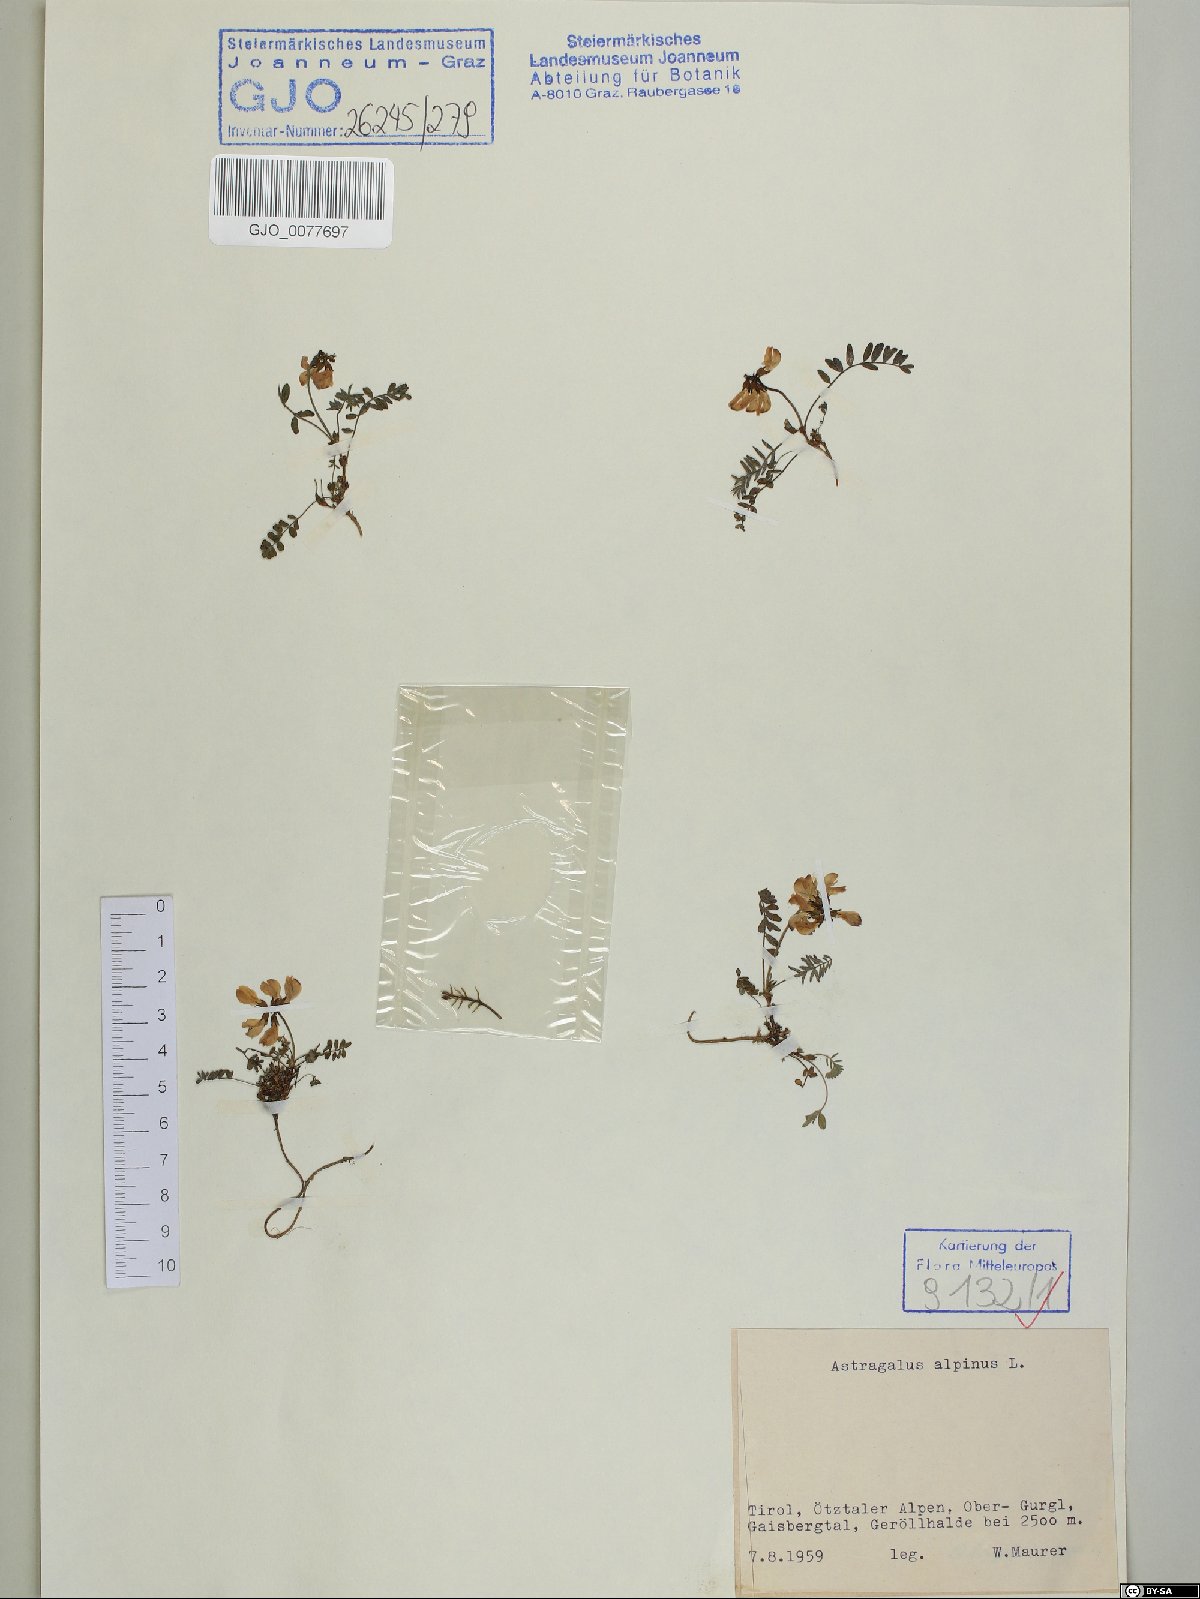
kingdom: Plantae
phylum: Tracheophyta
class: Magnoliopsida
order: Fabales
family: Fabaceae
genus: Astragalus
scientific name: Astragalus alpinus
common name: Alpine milk-vetch
